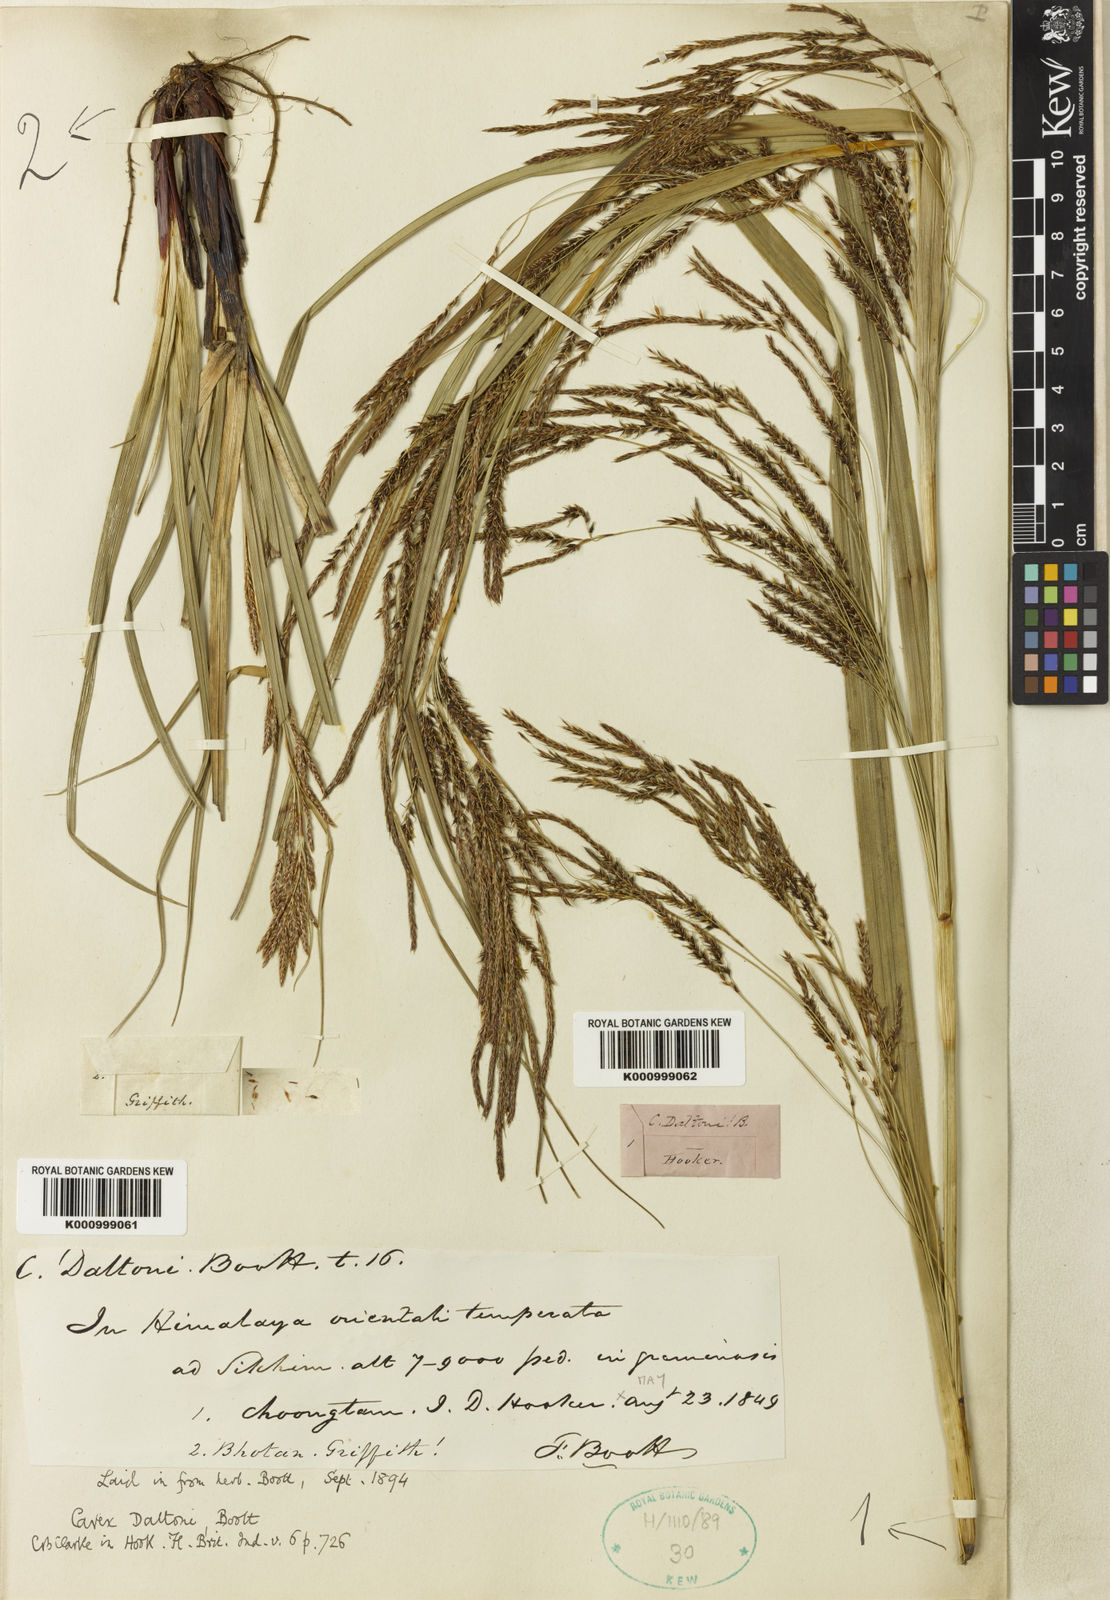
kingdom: Plantae
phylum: Tracheophyta
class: Liliopsida
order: Poales
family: Cyperaceae
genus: Carex
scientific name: Carex daltoni
